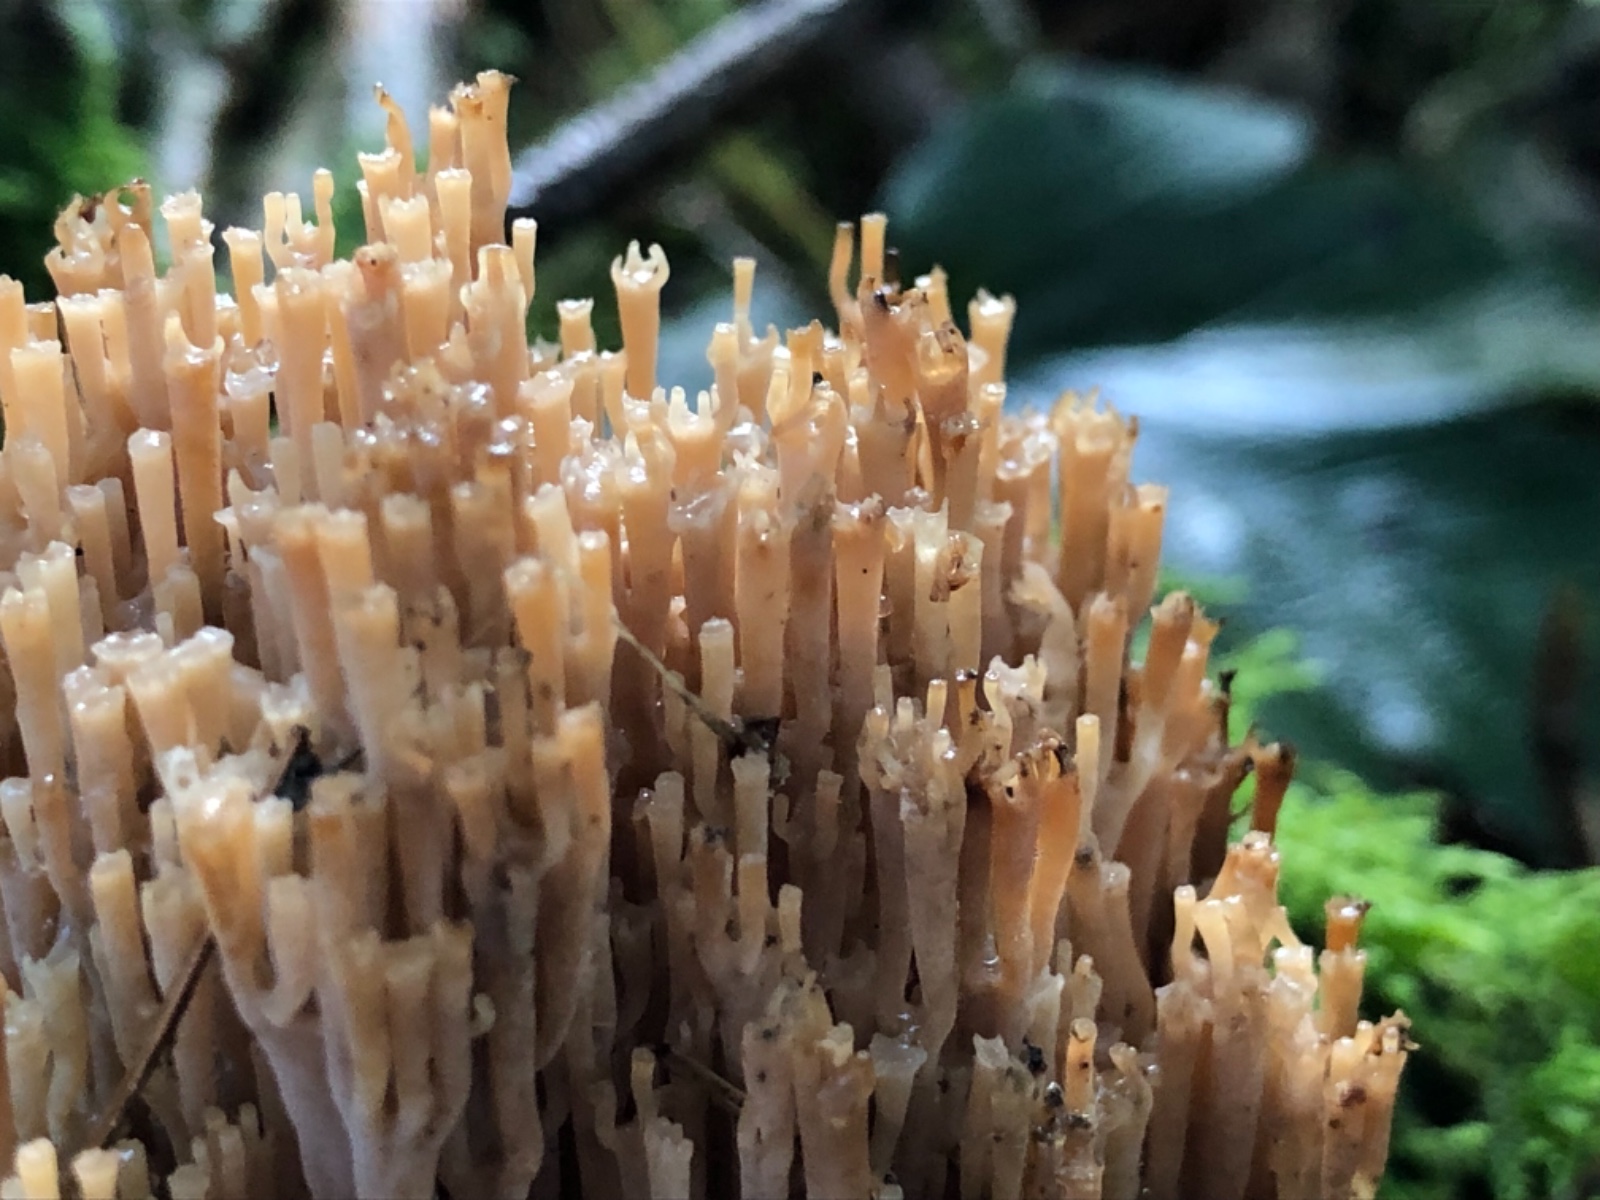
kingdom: Fungi
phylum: Basidiomycota
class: Agaricomycetes
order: Russulales
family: Auriscalpiaceae
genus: Artomyces
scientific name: Artomyces pyxidatus
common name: kandelabersvamp
